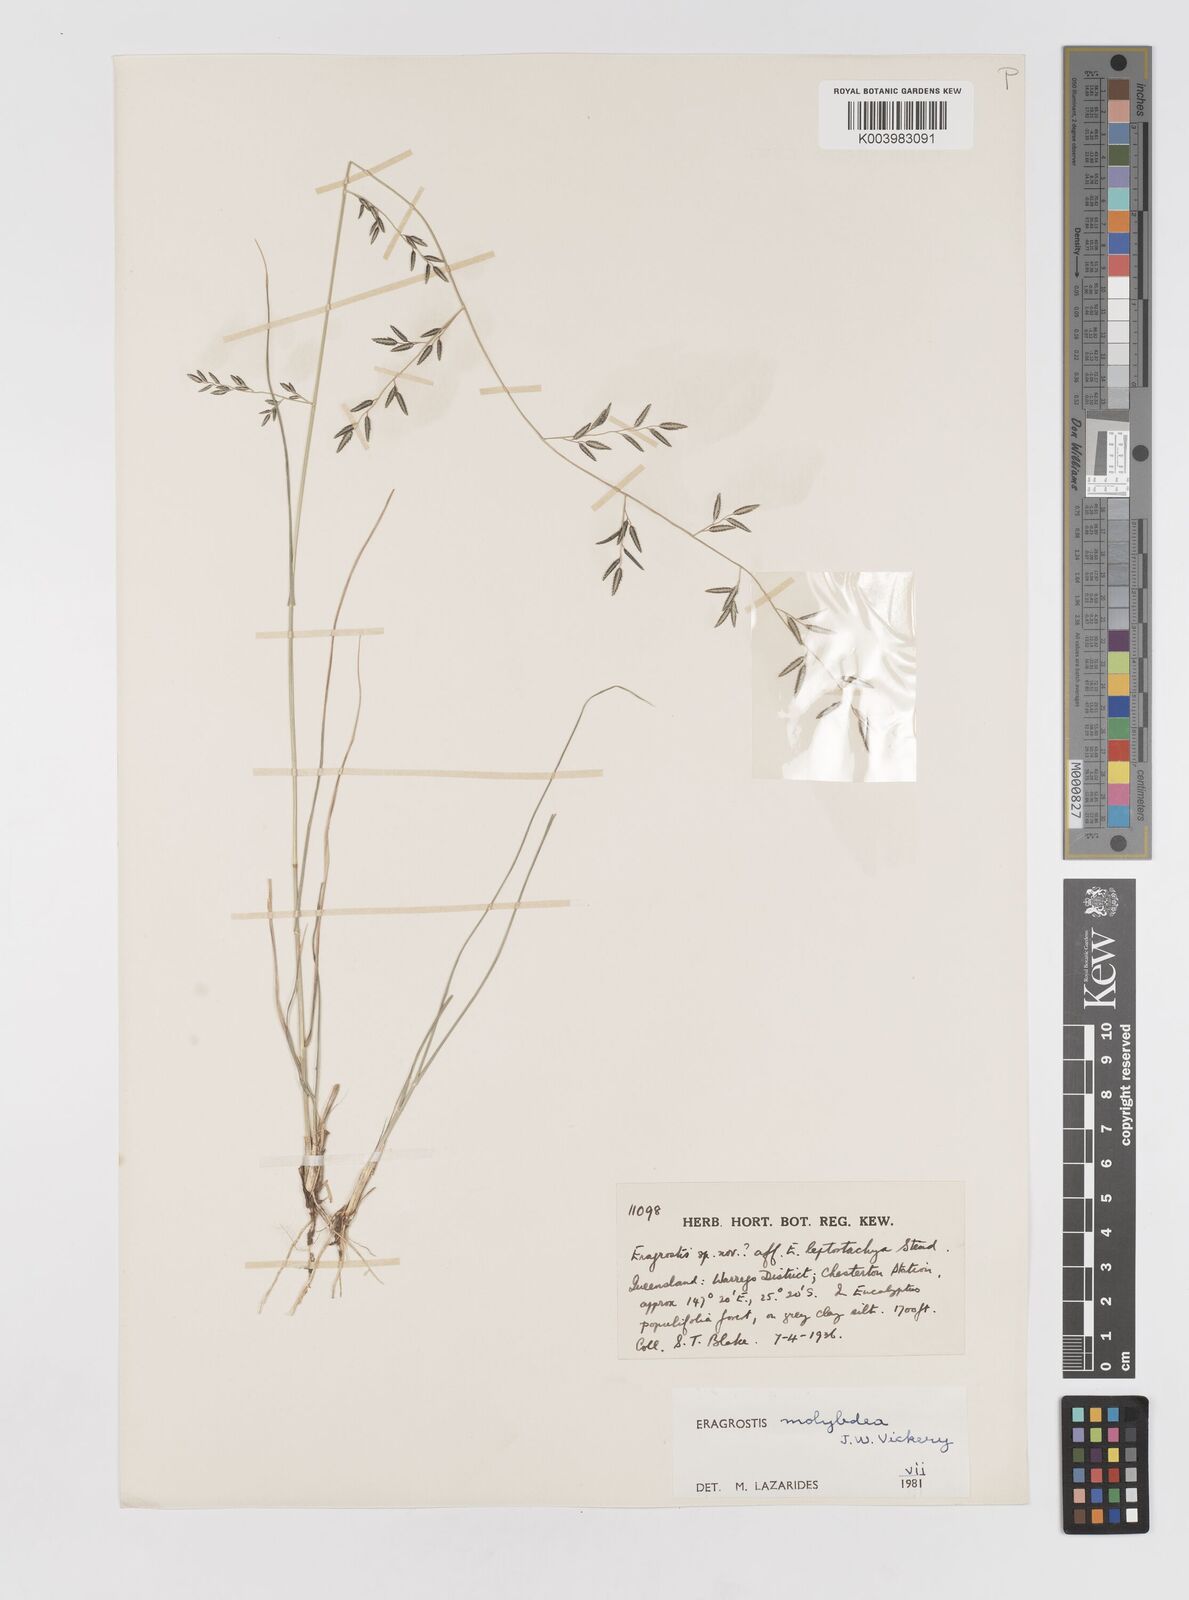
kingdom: Plantae
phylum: Tracheophyta
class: Liliopsida
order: Poales
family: Poaceae
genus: Eragrostis
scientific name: Eragrostis leptostachya
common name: Australian lovegrass
